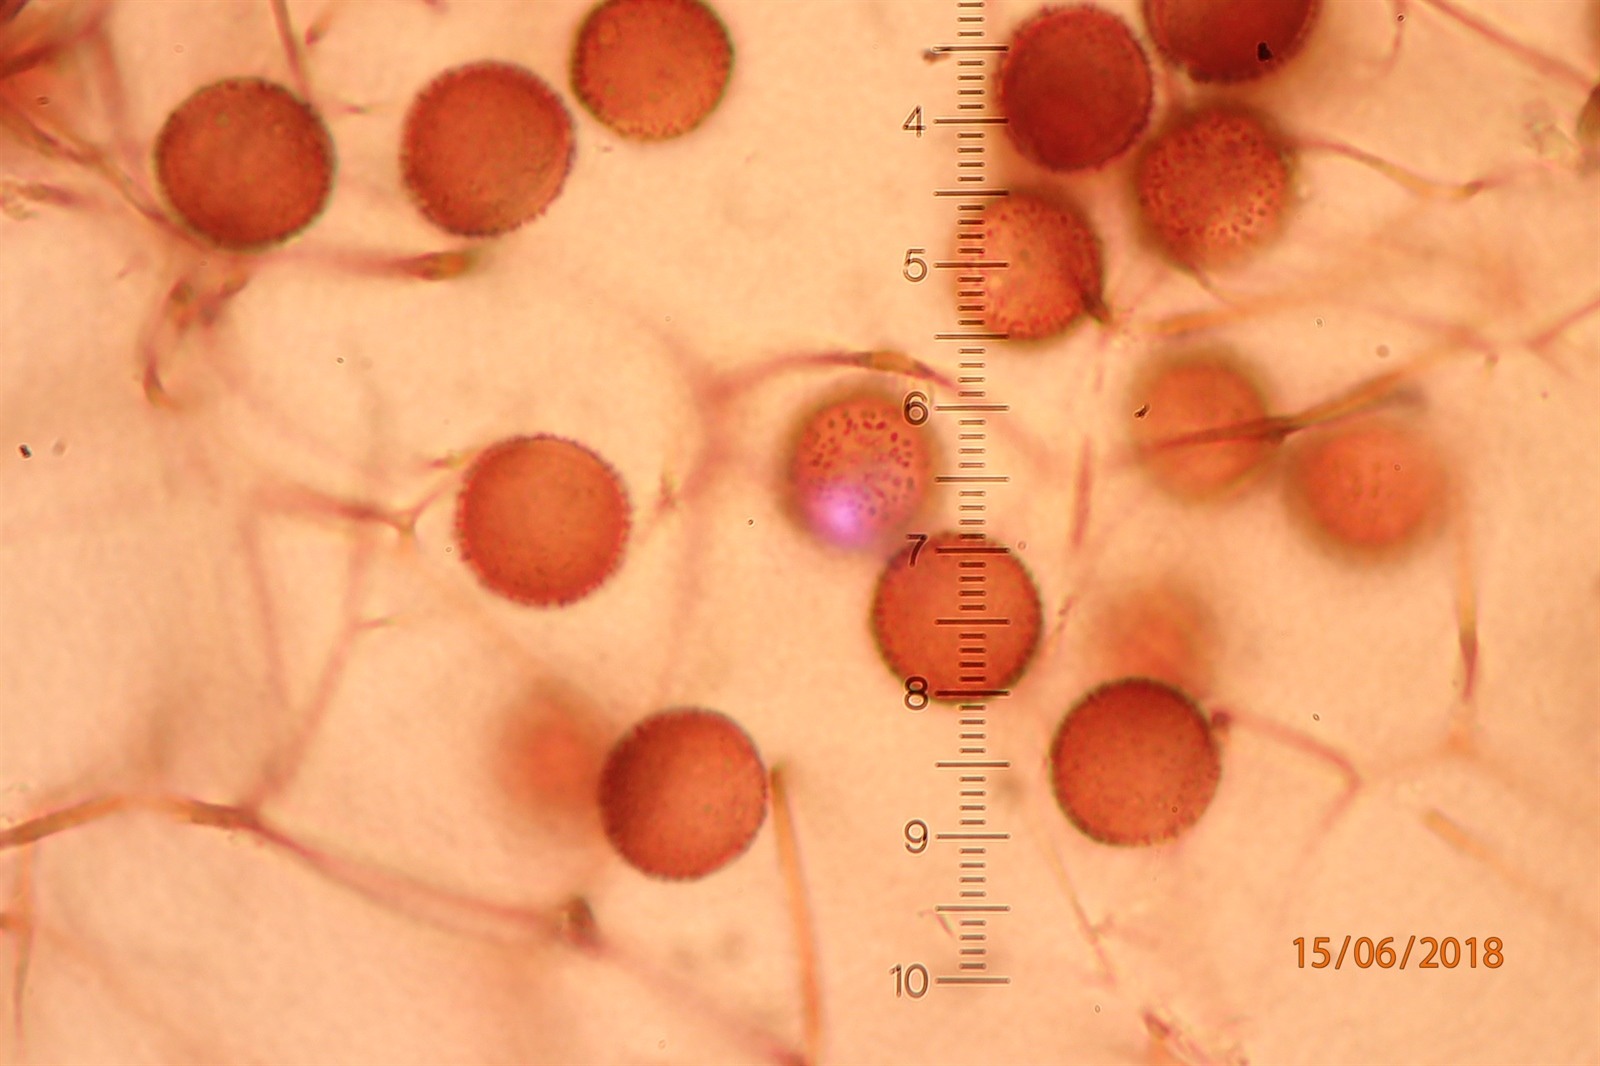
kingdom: Protozoa
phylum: Mycetozoa
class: Myxomycetes
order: Stemonitidales
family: Stemonitidaceae
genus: Lamproderma
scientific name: Lamproderma spinulosporum
